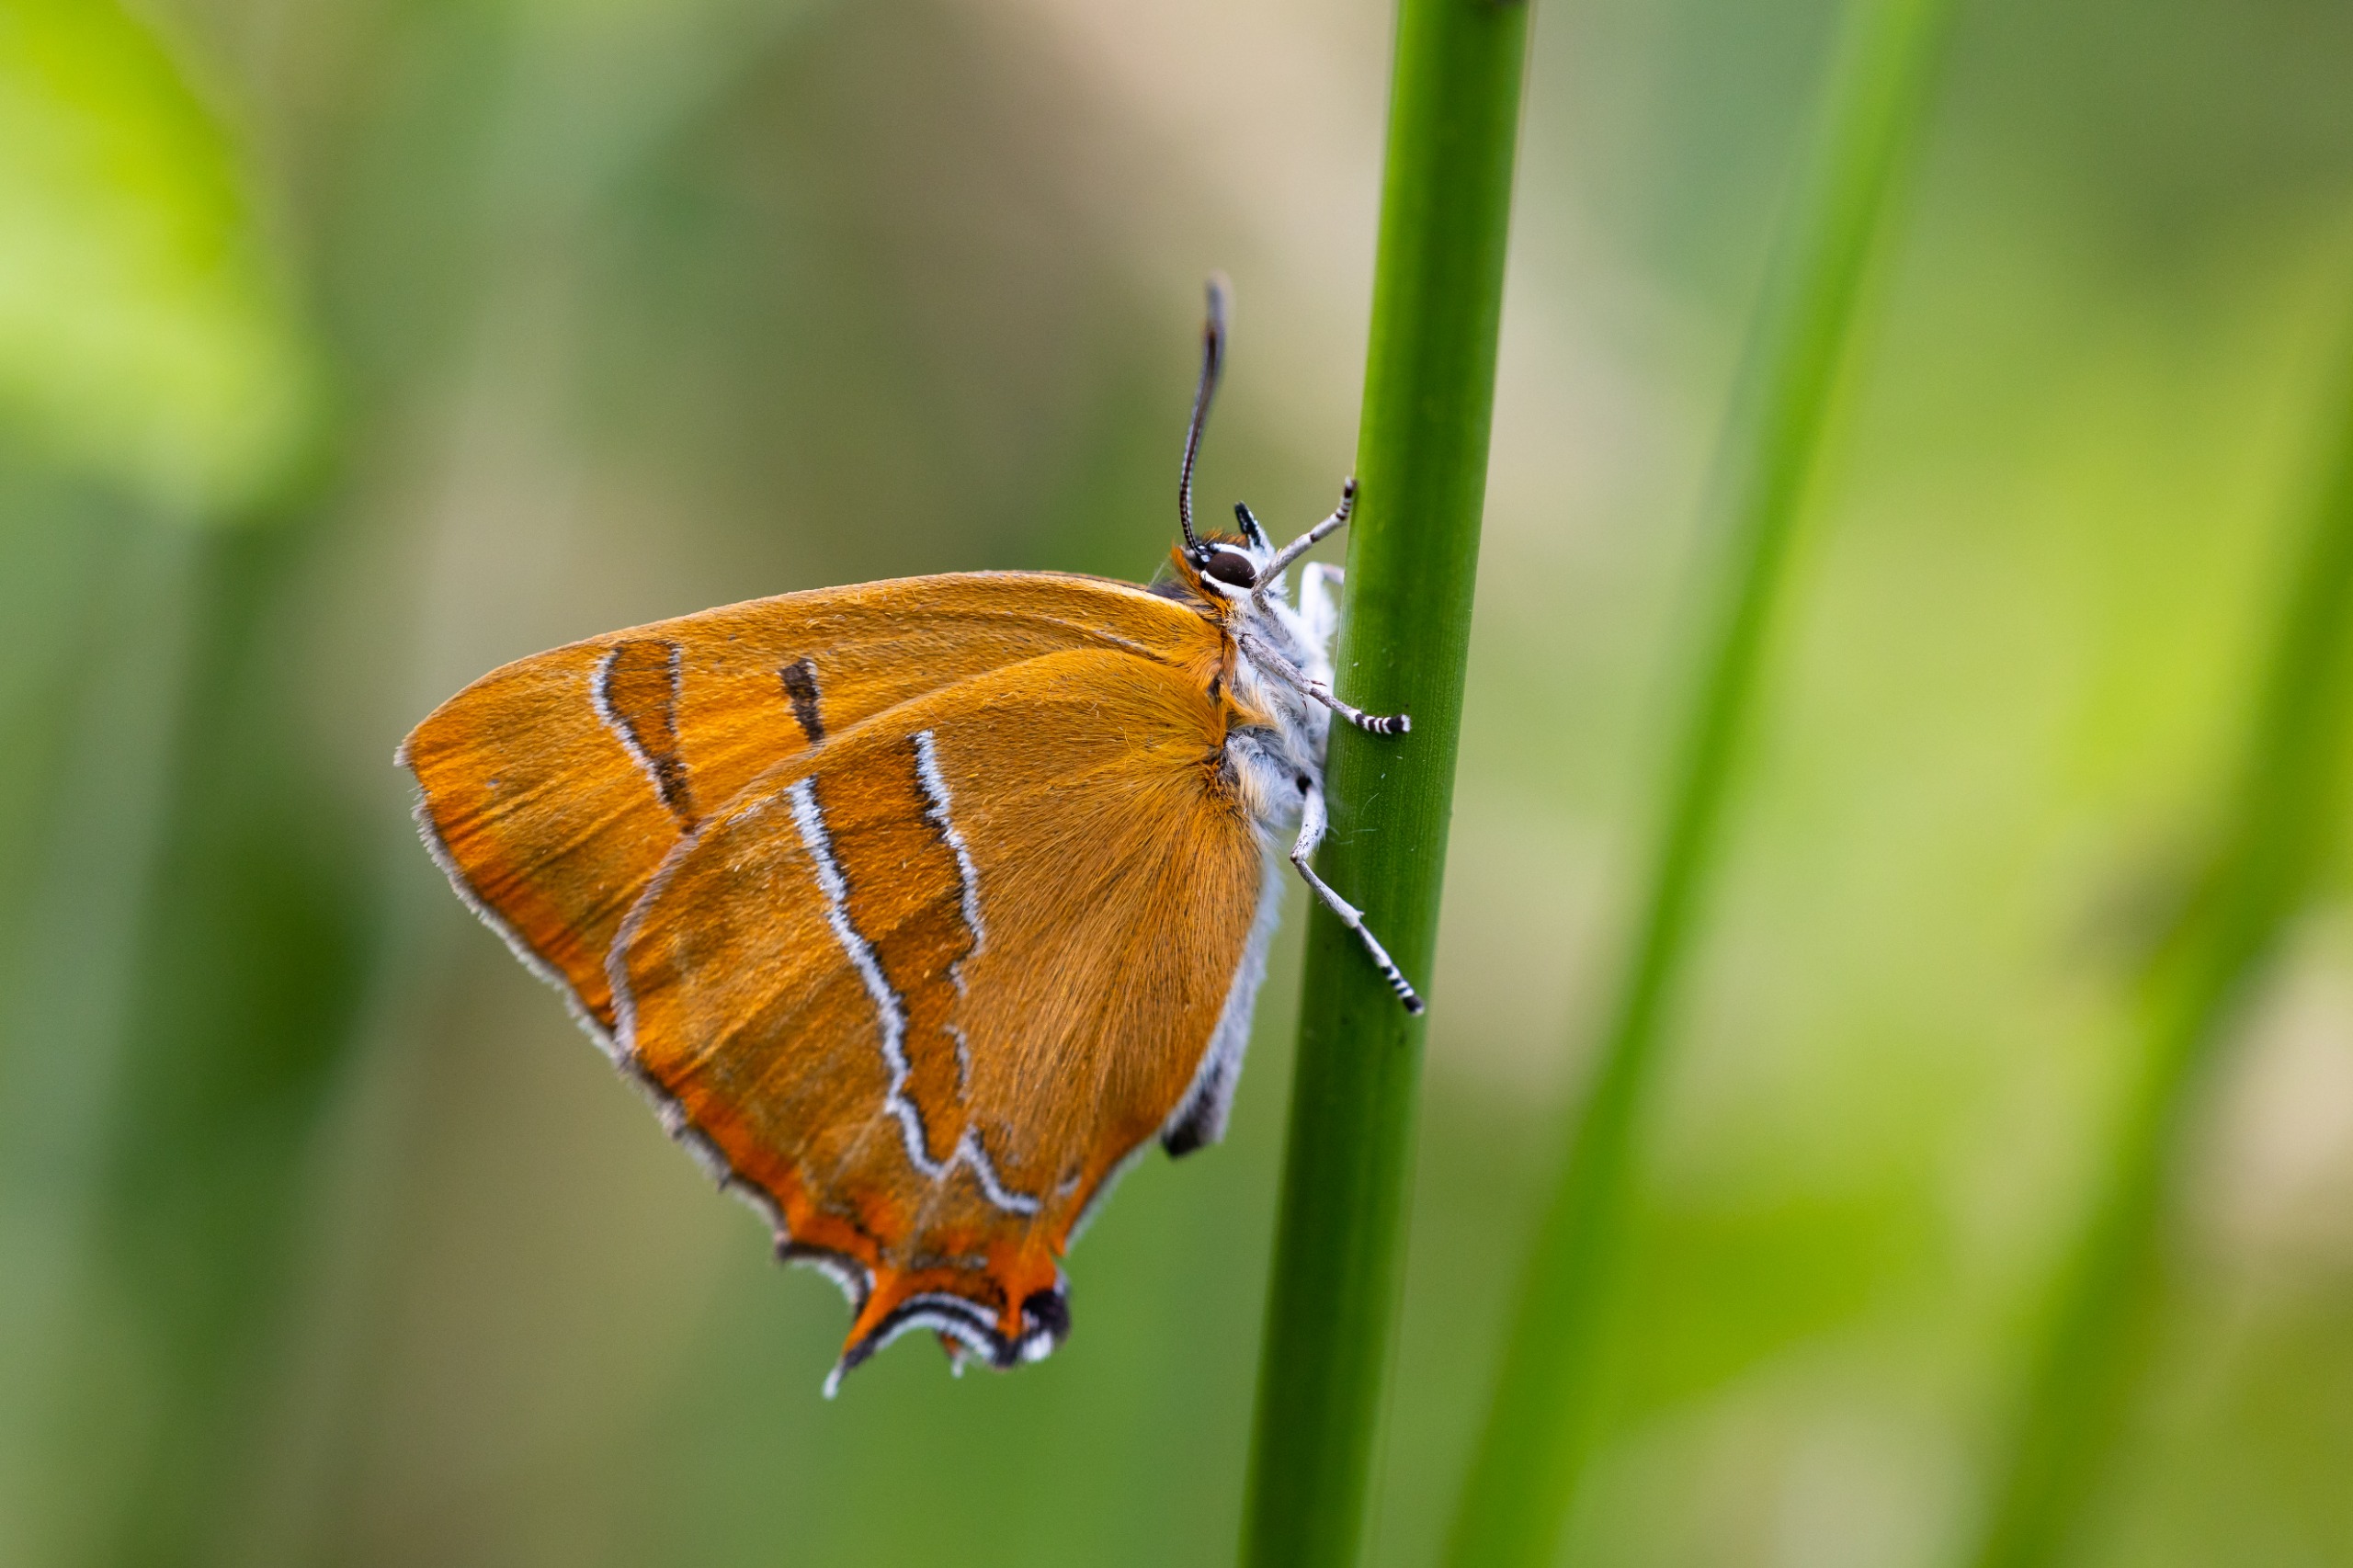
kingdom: Animalia
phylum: Arthropoda
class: Insecta
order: Lepidoptera
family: Lycaenidae
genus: Thecla
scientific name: Thecla betulae
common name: Guldhale
